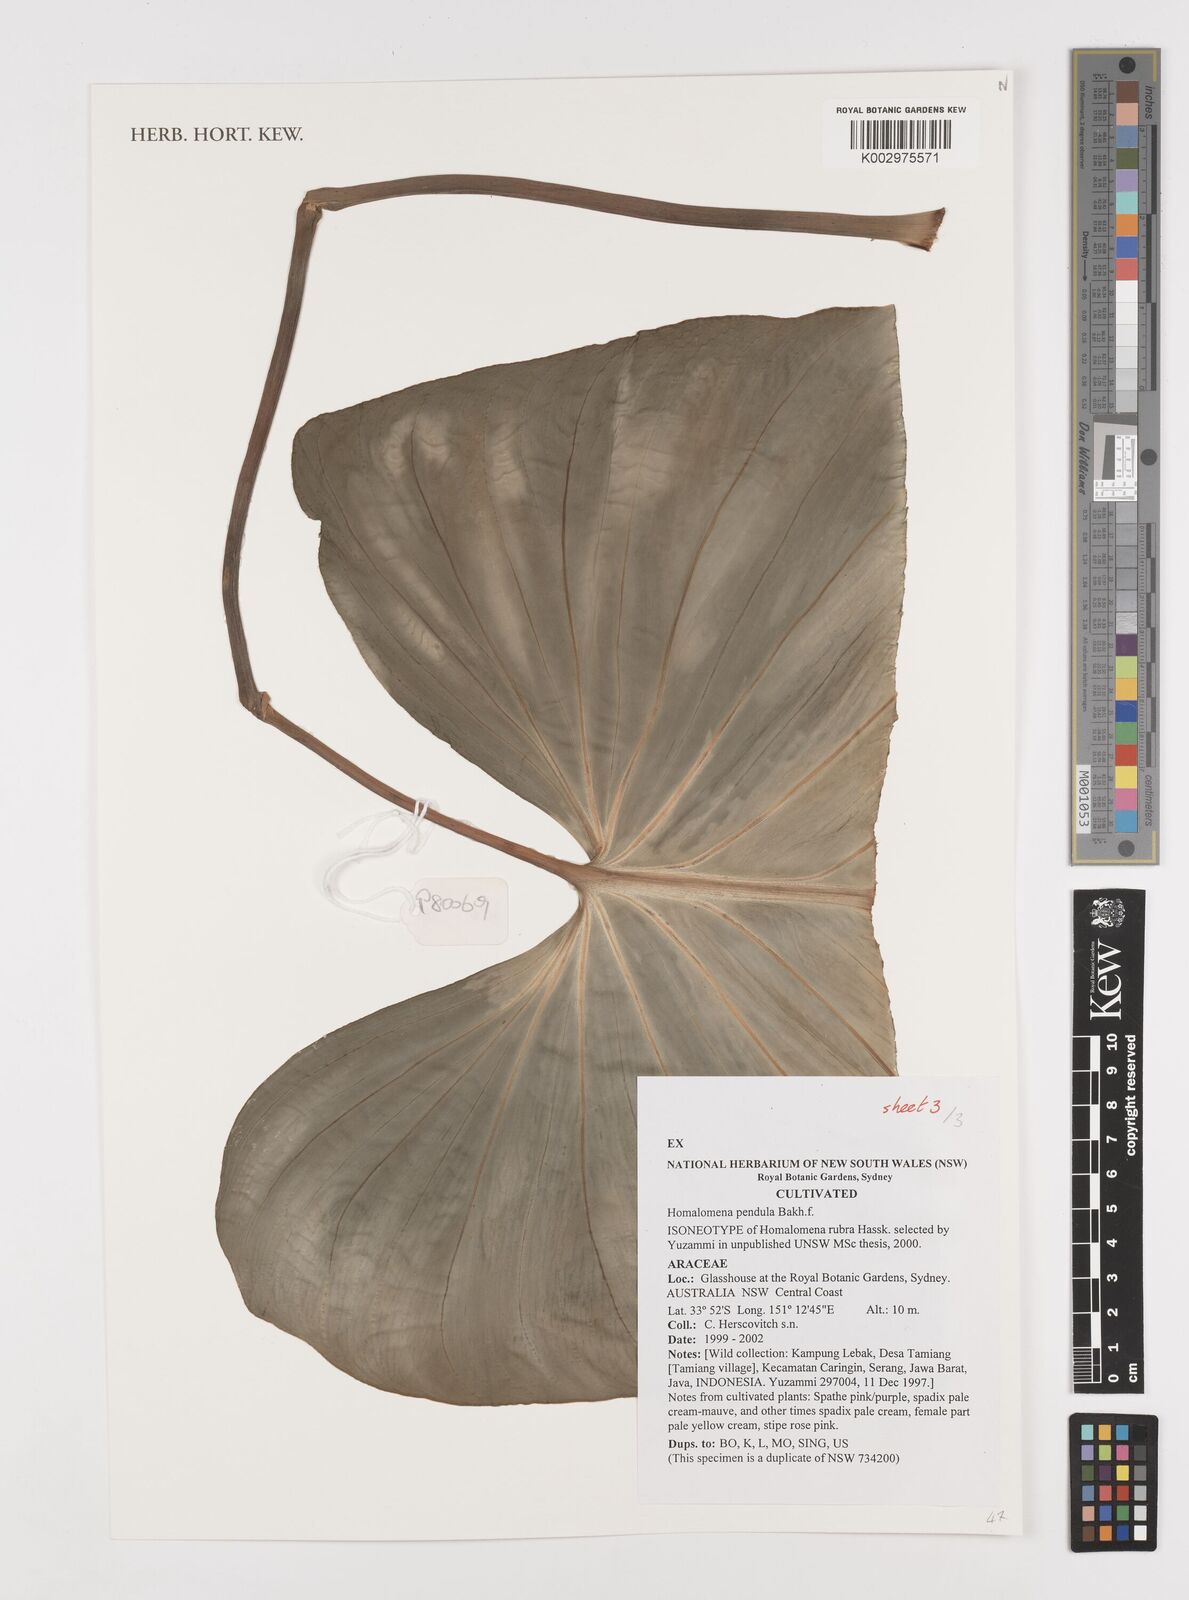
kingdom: Plantae
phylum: Tracheophyta
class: Liliopsida
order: Alismatales
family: Araceae
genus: Homalomena
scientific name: Homalomena
